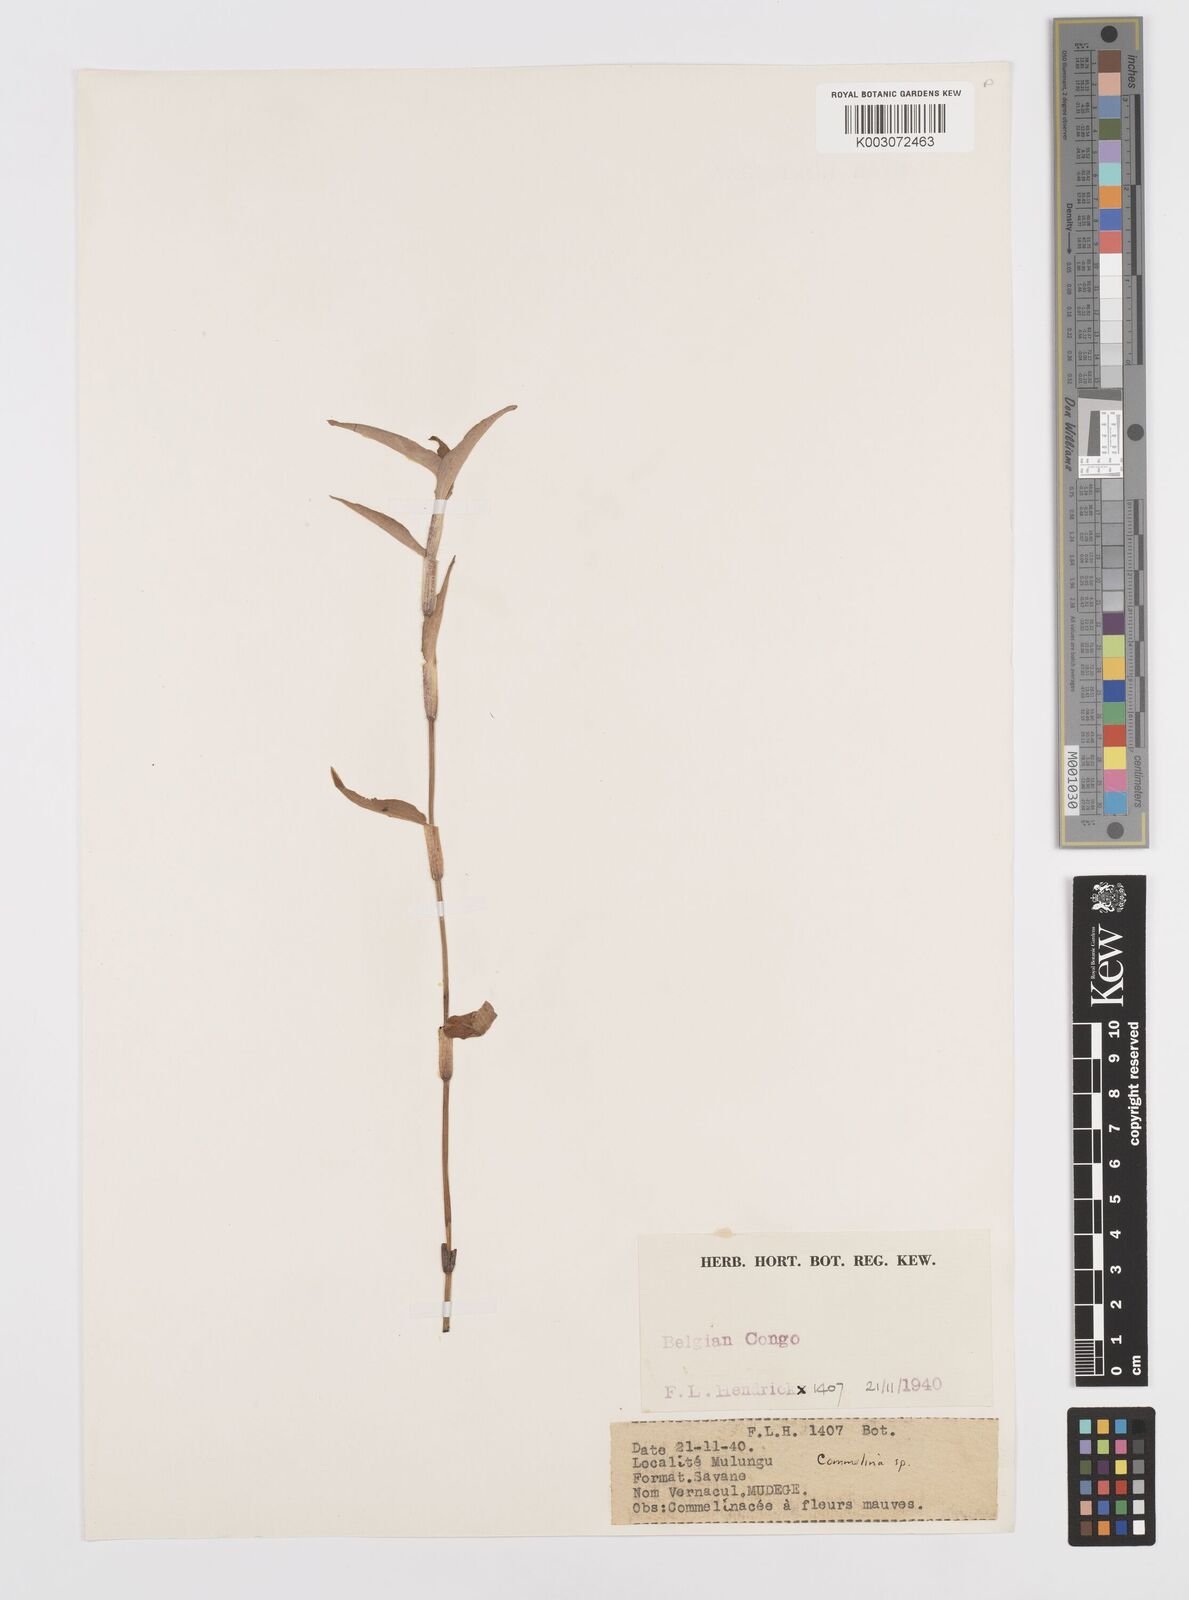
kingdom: Plantae
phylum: Tracheophyta
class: Liliopsida
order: Commelinales
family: Commelinaceae
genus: Commelina
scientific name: Commelina
